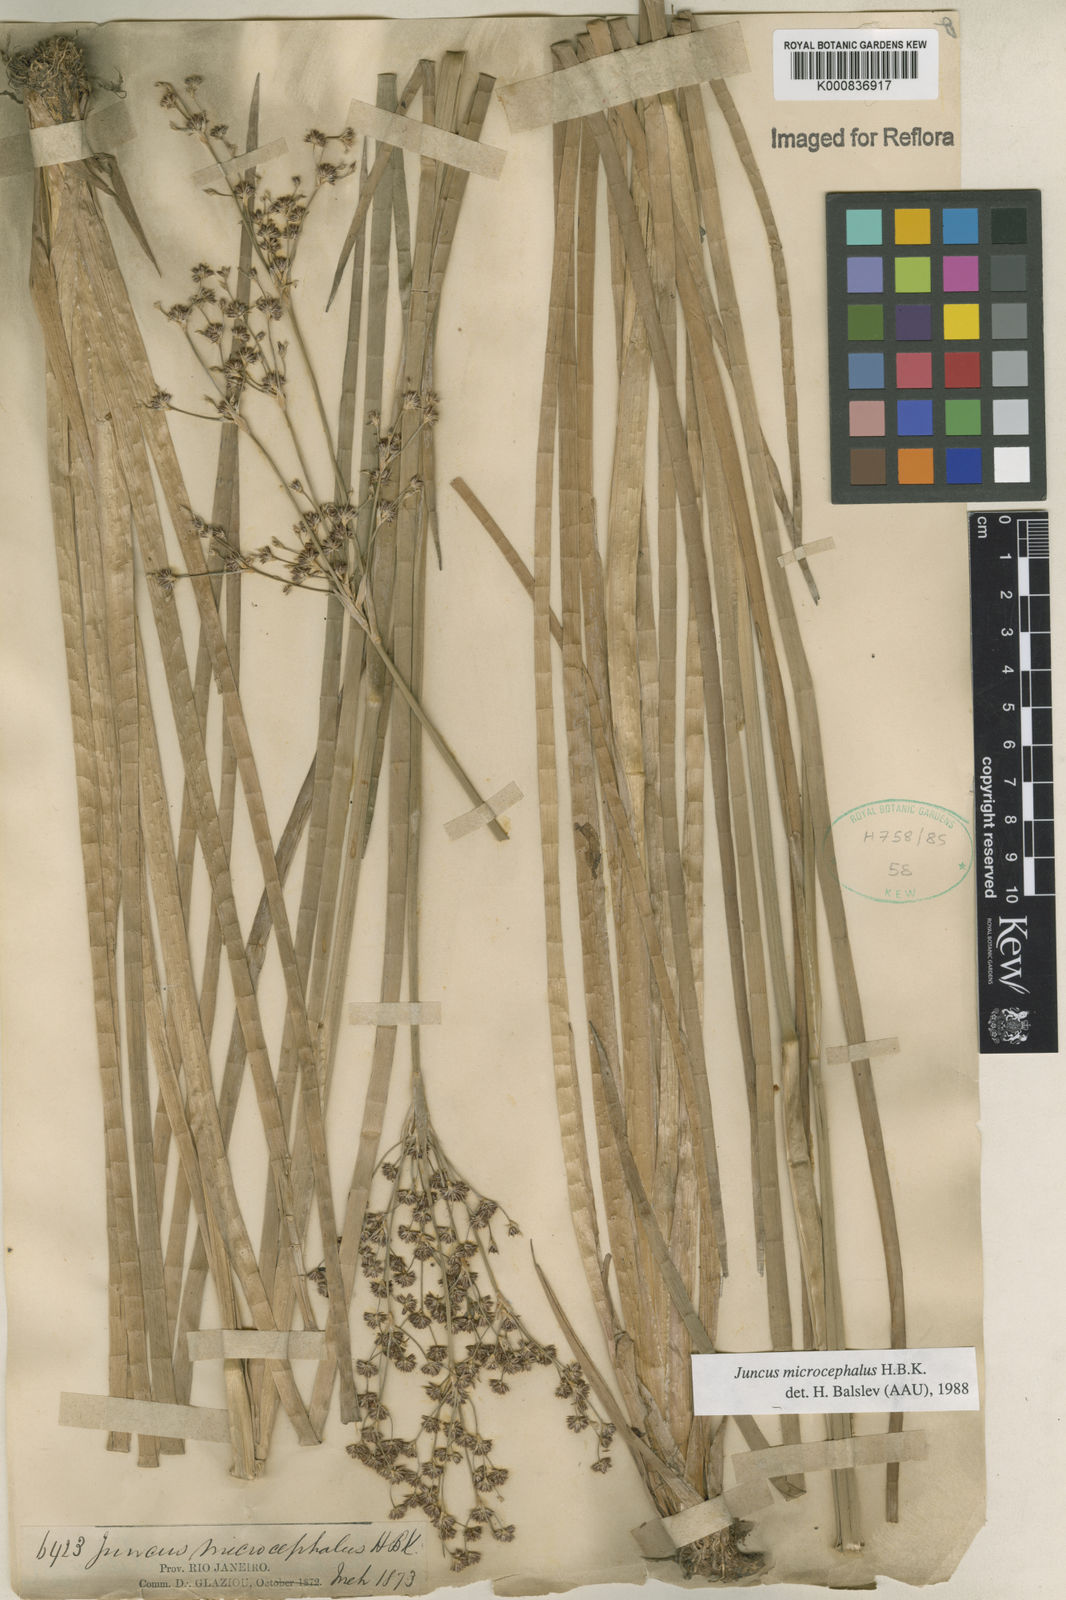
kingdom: Plantae
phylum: Tracheophyta
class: Liliopsida
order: Poales
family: Juncaceae
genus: Juncus
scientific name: Juncus microcephalus
